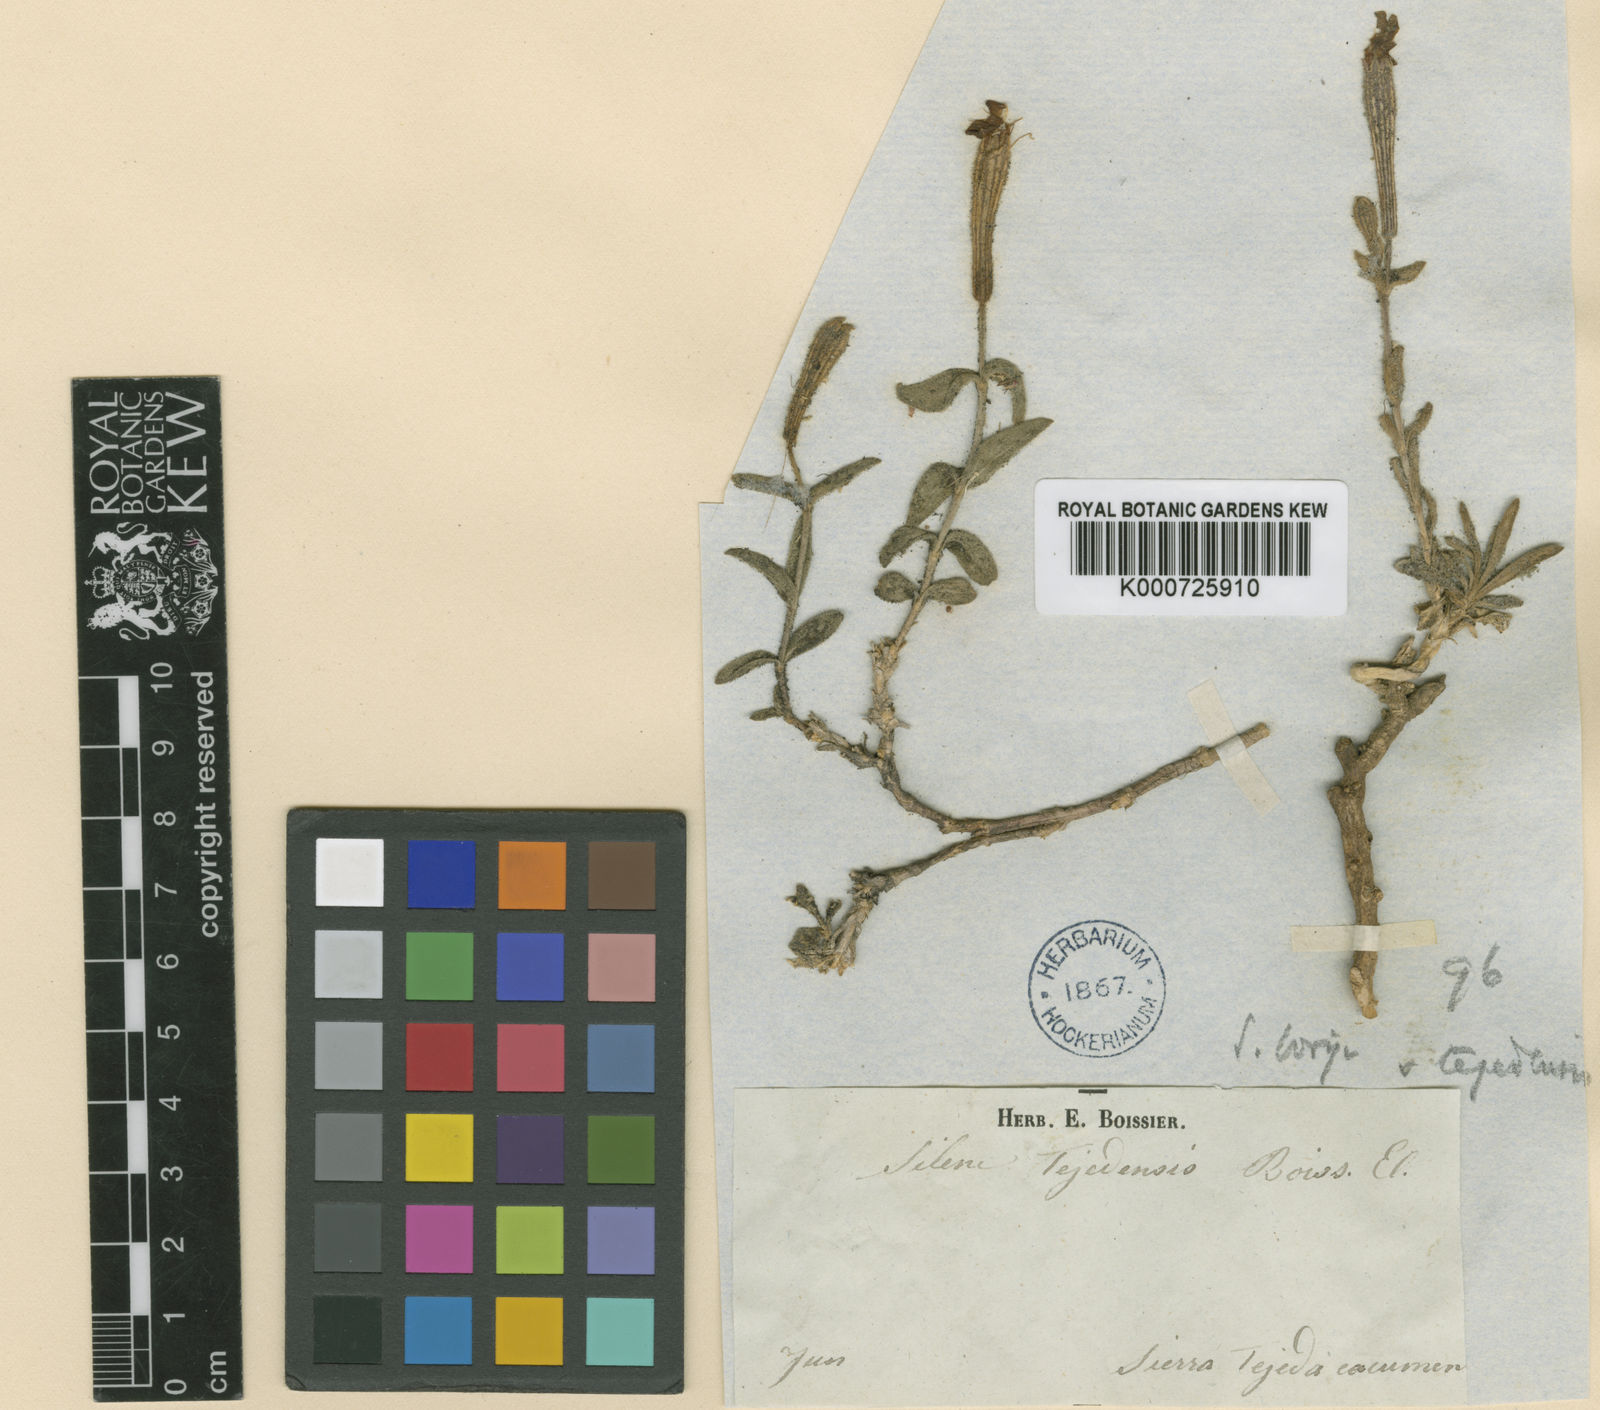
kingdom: Plantae
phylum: Tracheophyta
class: Magnoliopsida
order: Caryophyllales
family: Caryophyllaceae
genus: Silene
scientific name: Silene boryi
